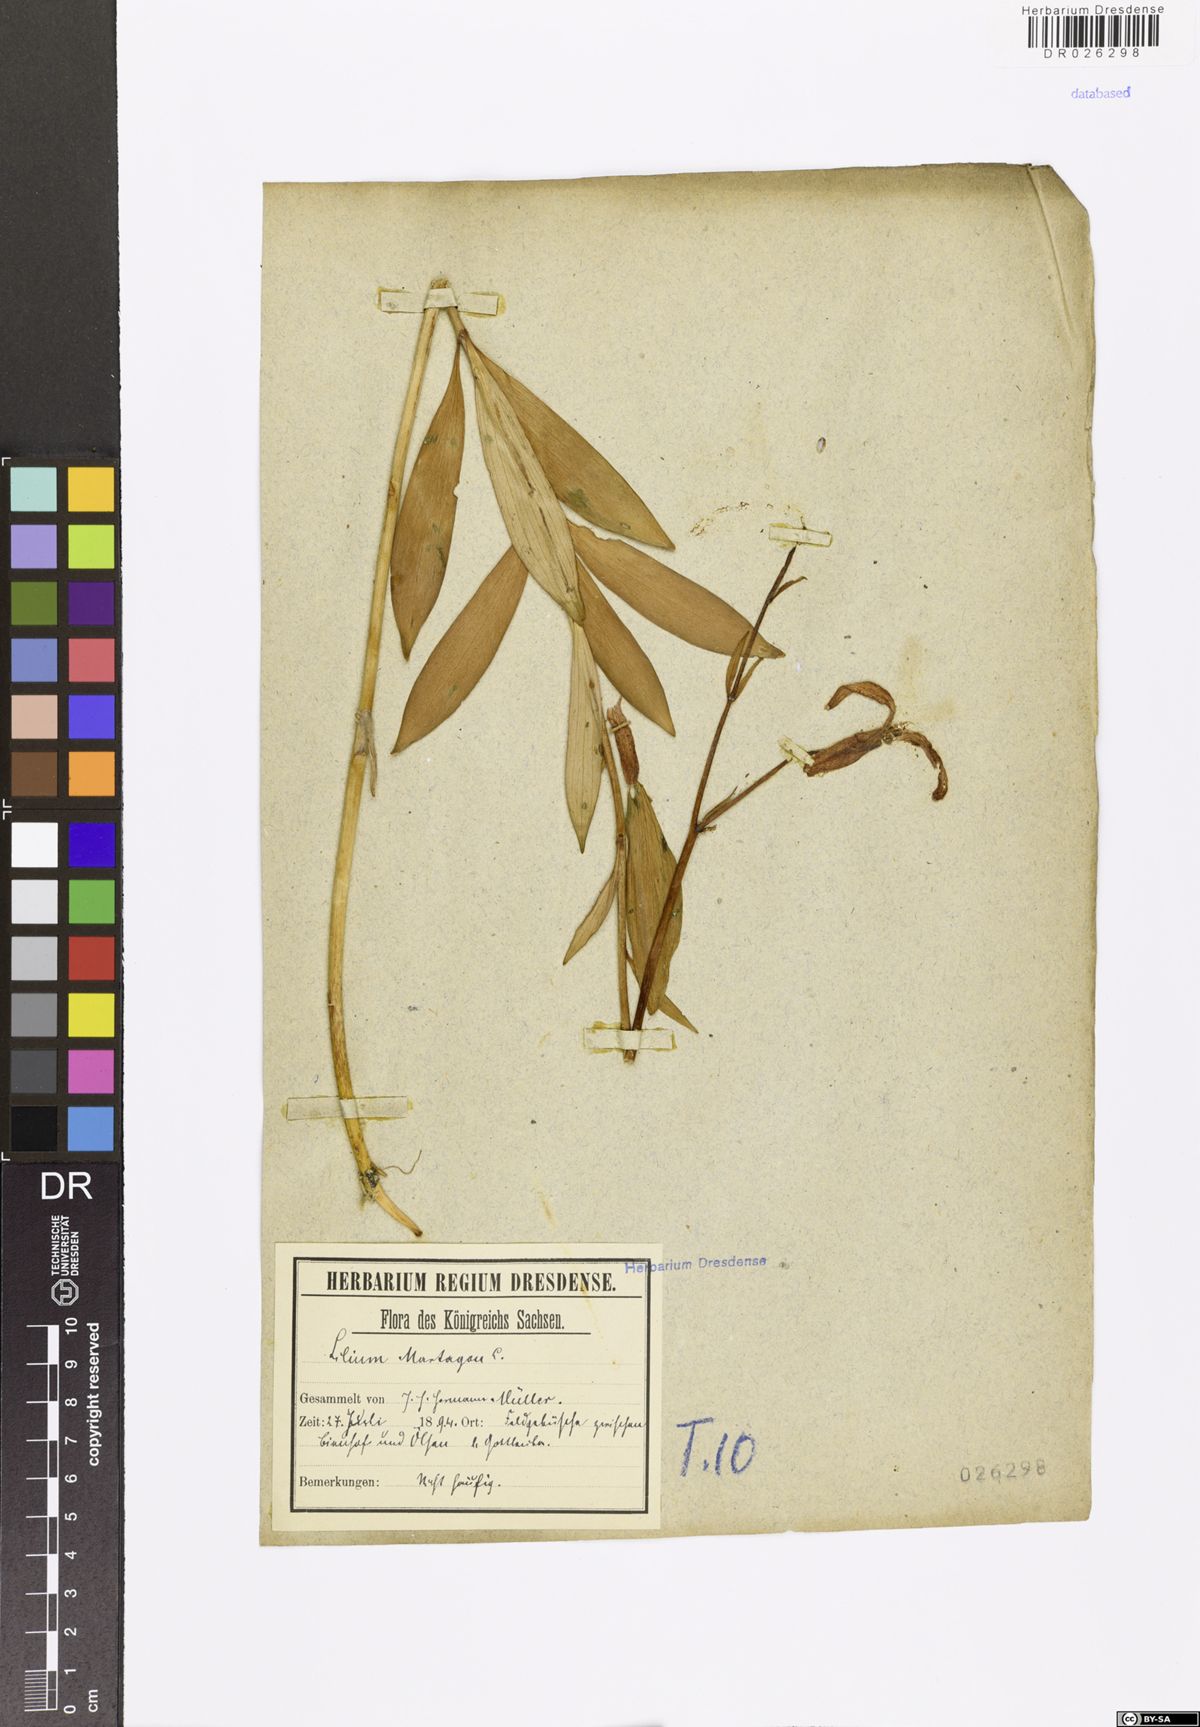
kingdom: Plantae
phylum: Tracheophyta
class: Liliopsida
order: Liliales
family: Liliaceae
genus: Lilium
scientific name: Lilium martagon
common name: Martagon lily
